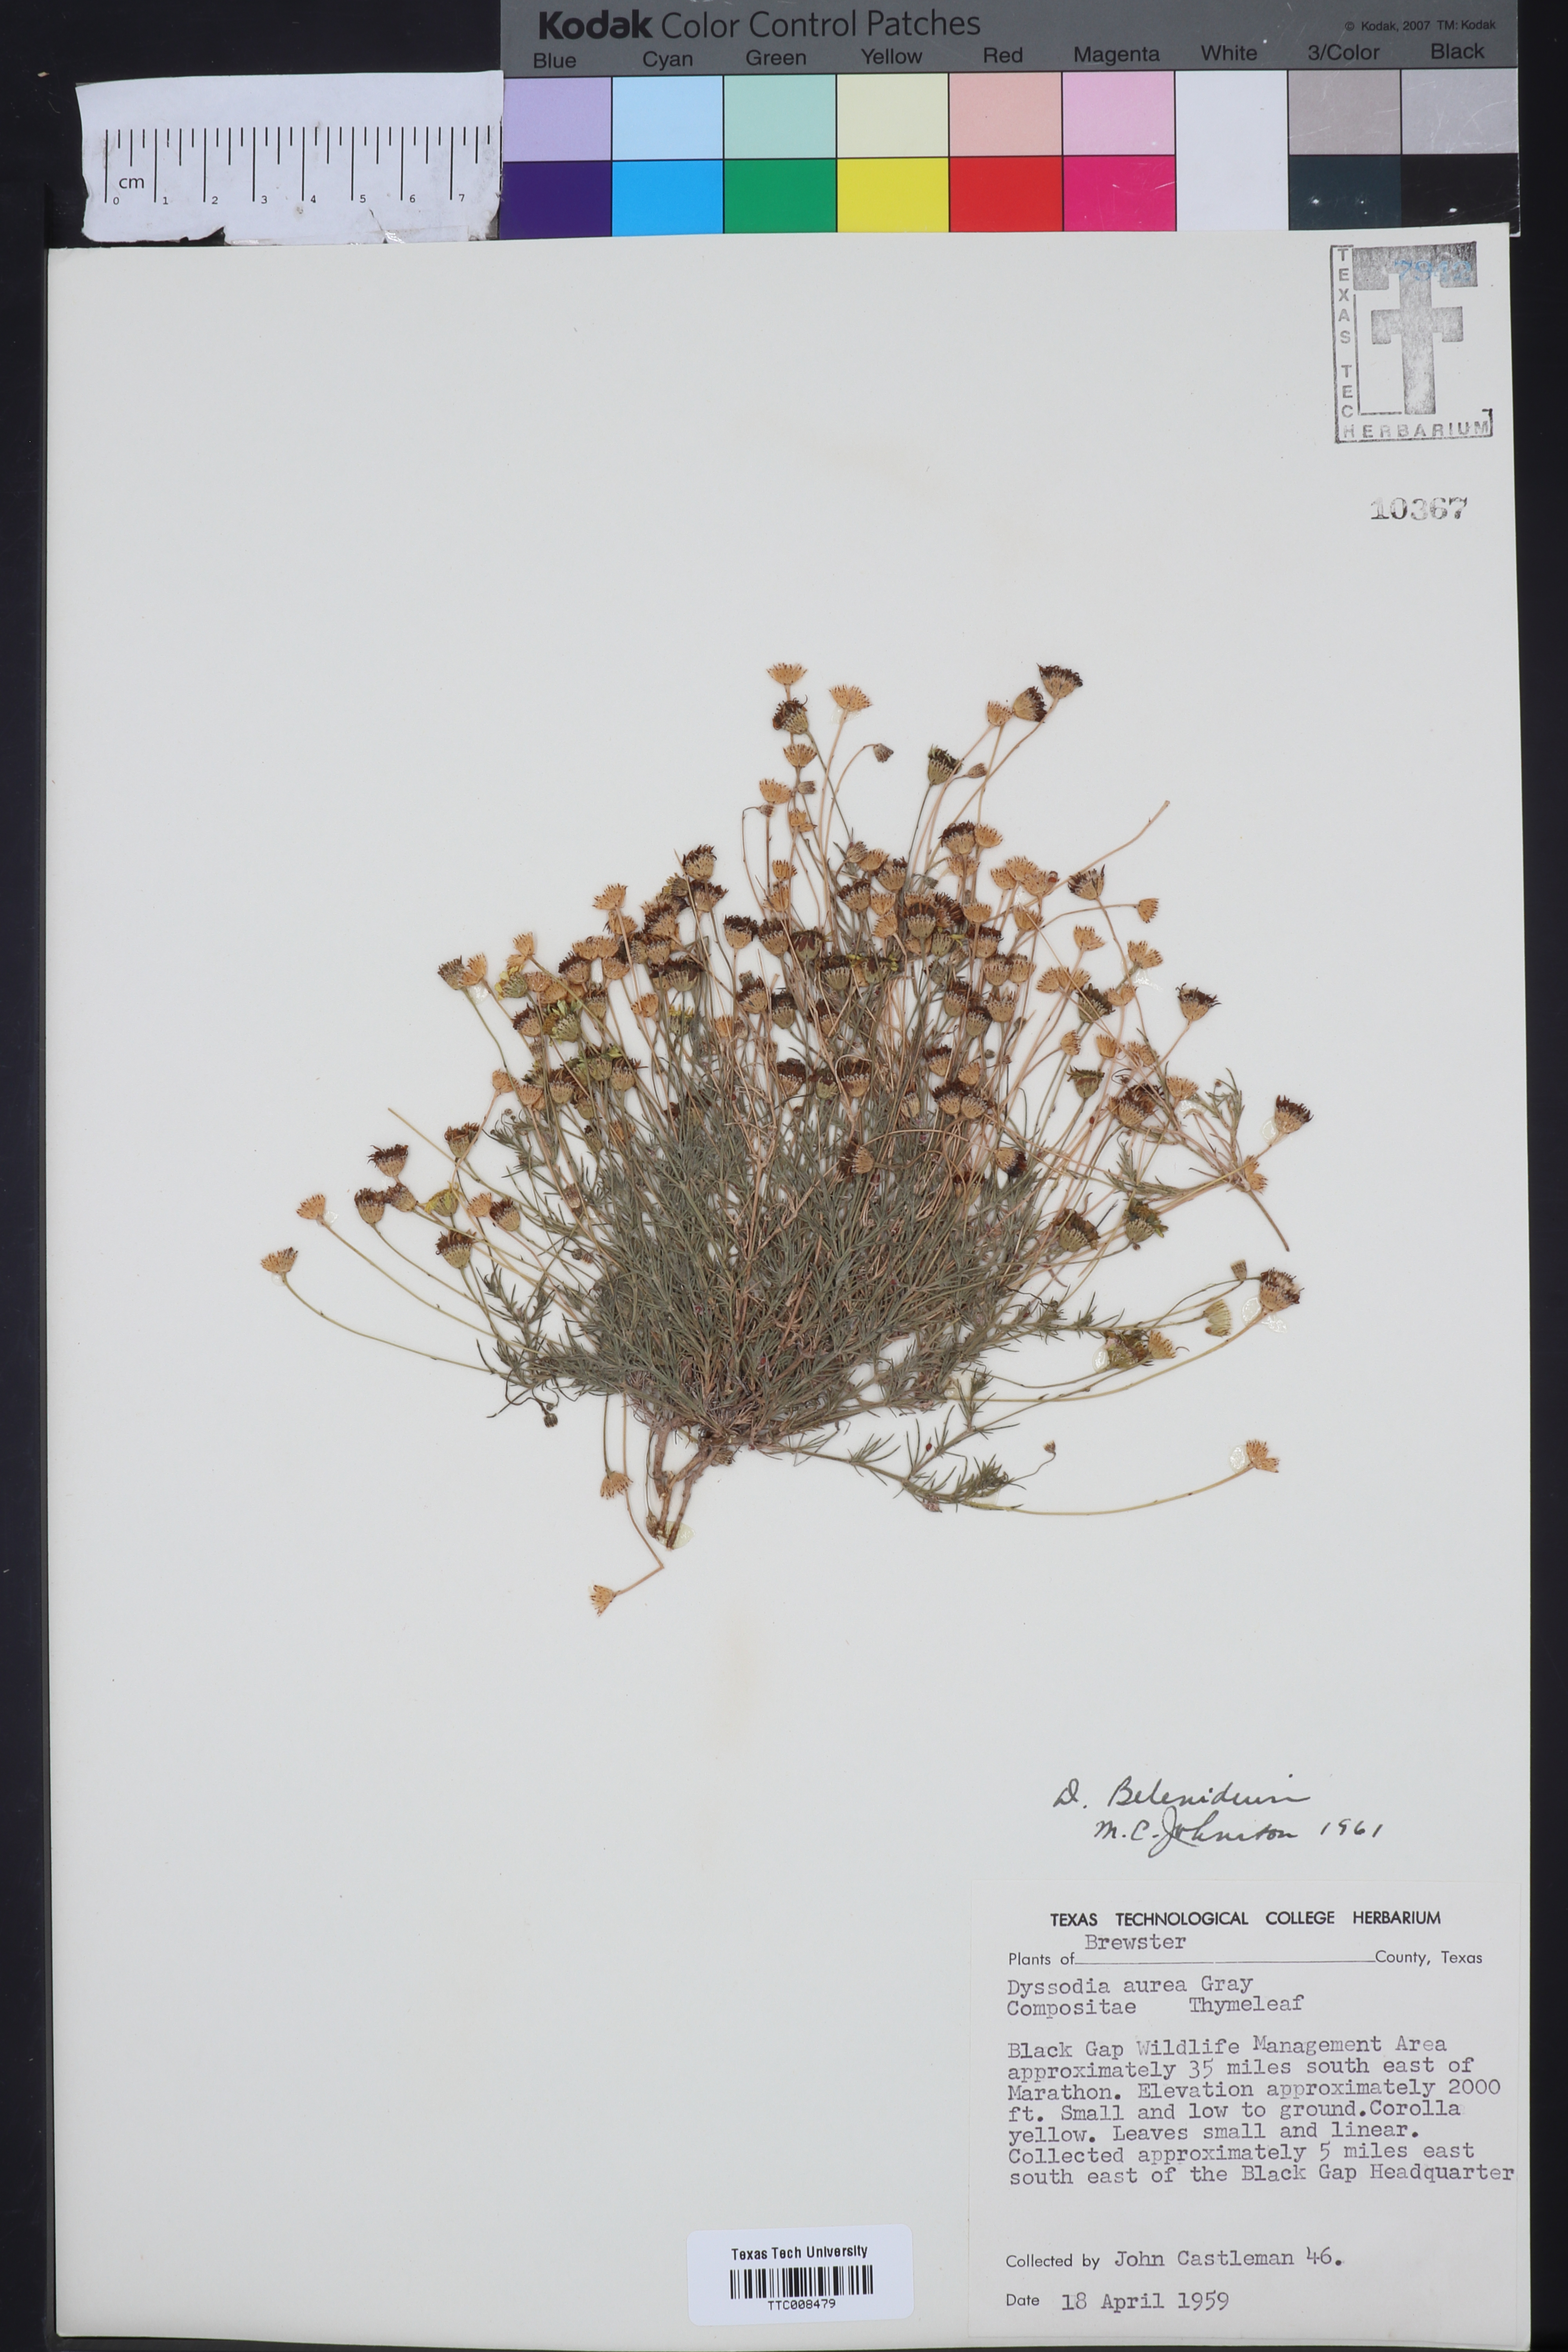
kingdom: Plantae
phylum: Tracheophyta
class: Magnoliopsida
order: Asterales
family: Asteraceae
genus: Thymophylla
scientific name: Thymophylla pentachaeta
